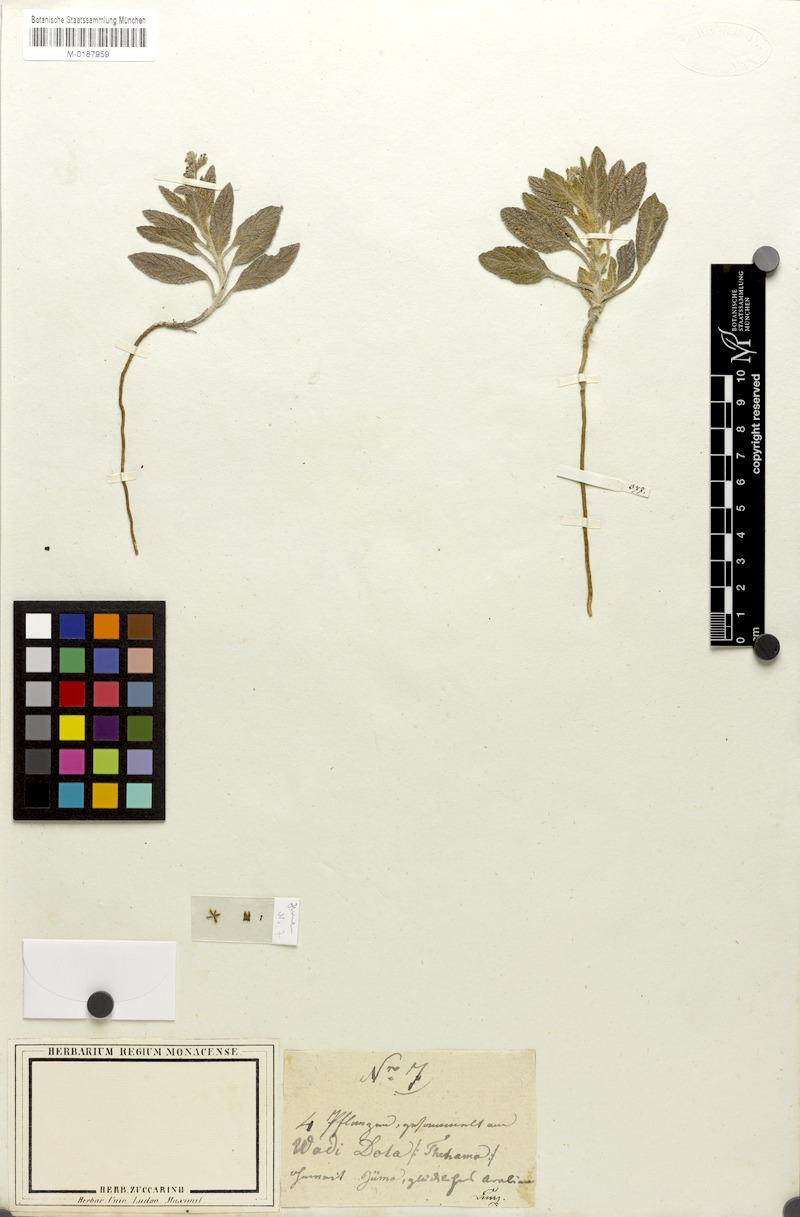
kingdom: Plantae
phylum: Tracheophyta
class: Magnoliopsida
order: Boraginales
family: Heliotropiaceae
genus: Heliotropium
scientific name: Heliotropium
